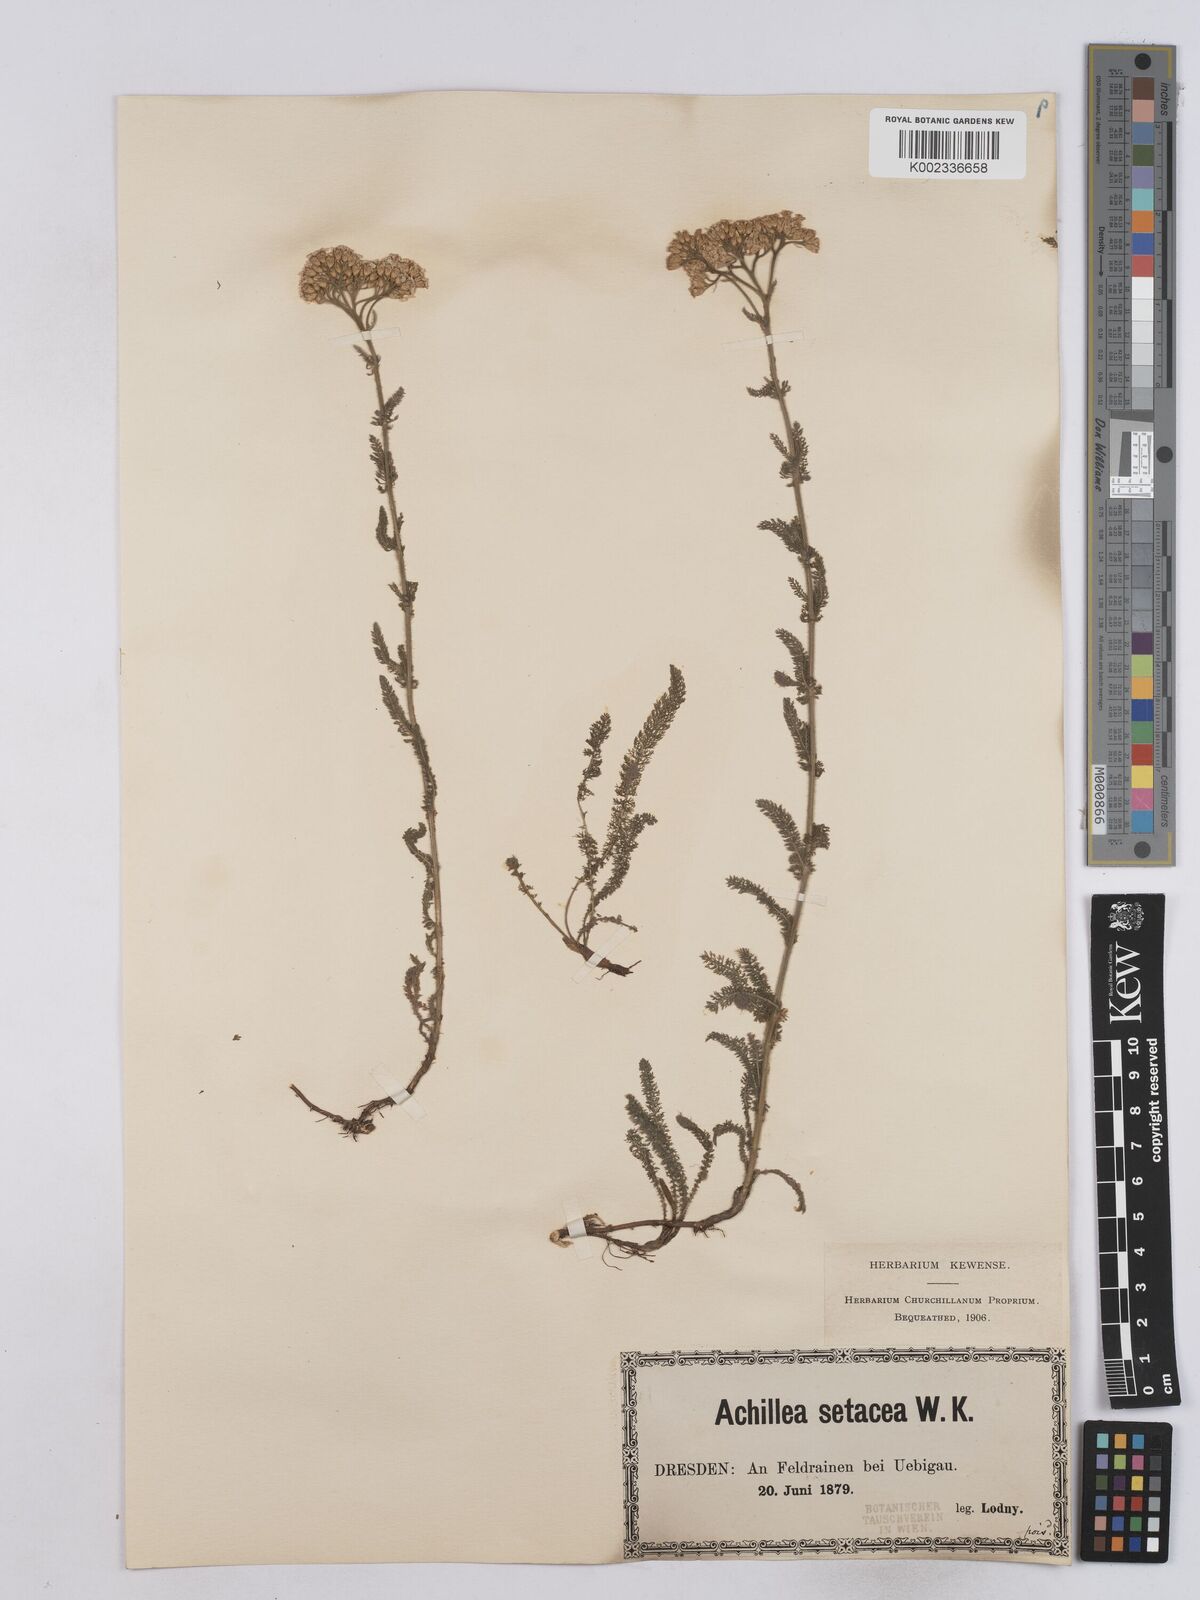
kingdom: Plantae
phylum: Tracheophyta
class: Magnoliopsida
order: Asterales
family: Asteraceae
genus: Achillea
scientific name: Achillea setacea
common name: Bristly yarrow
